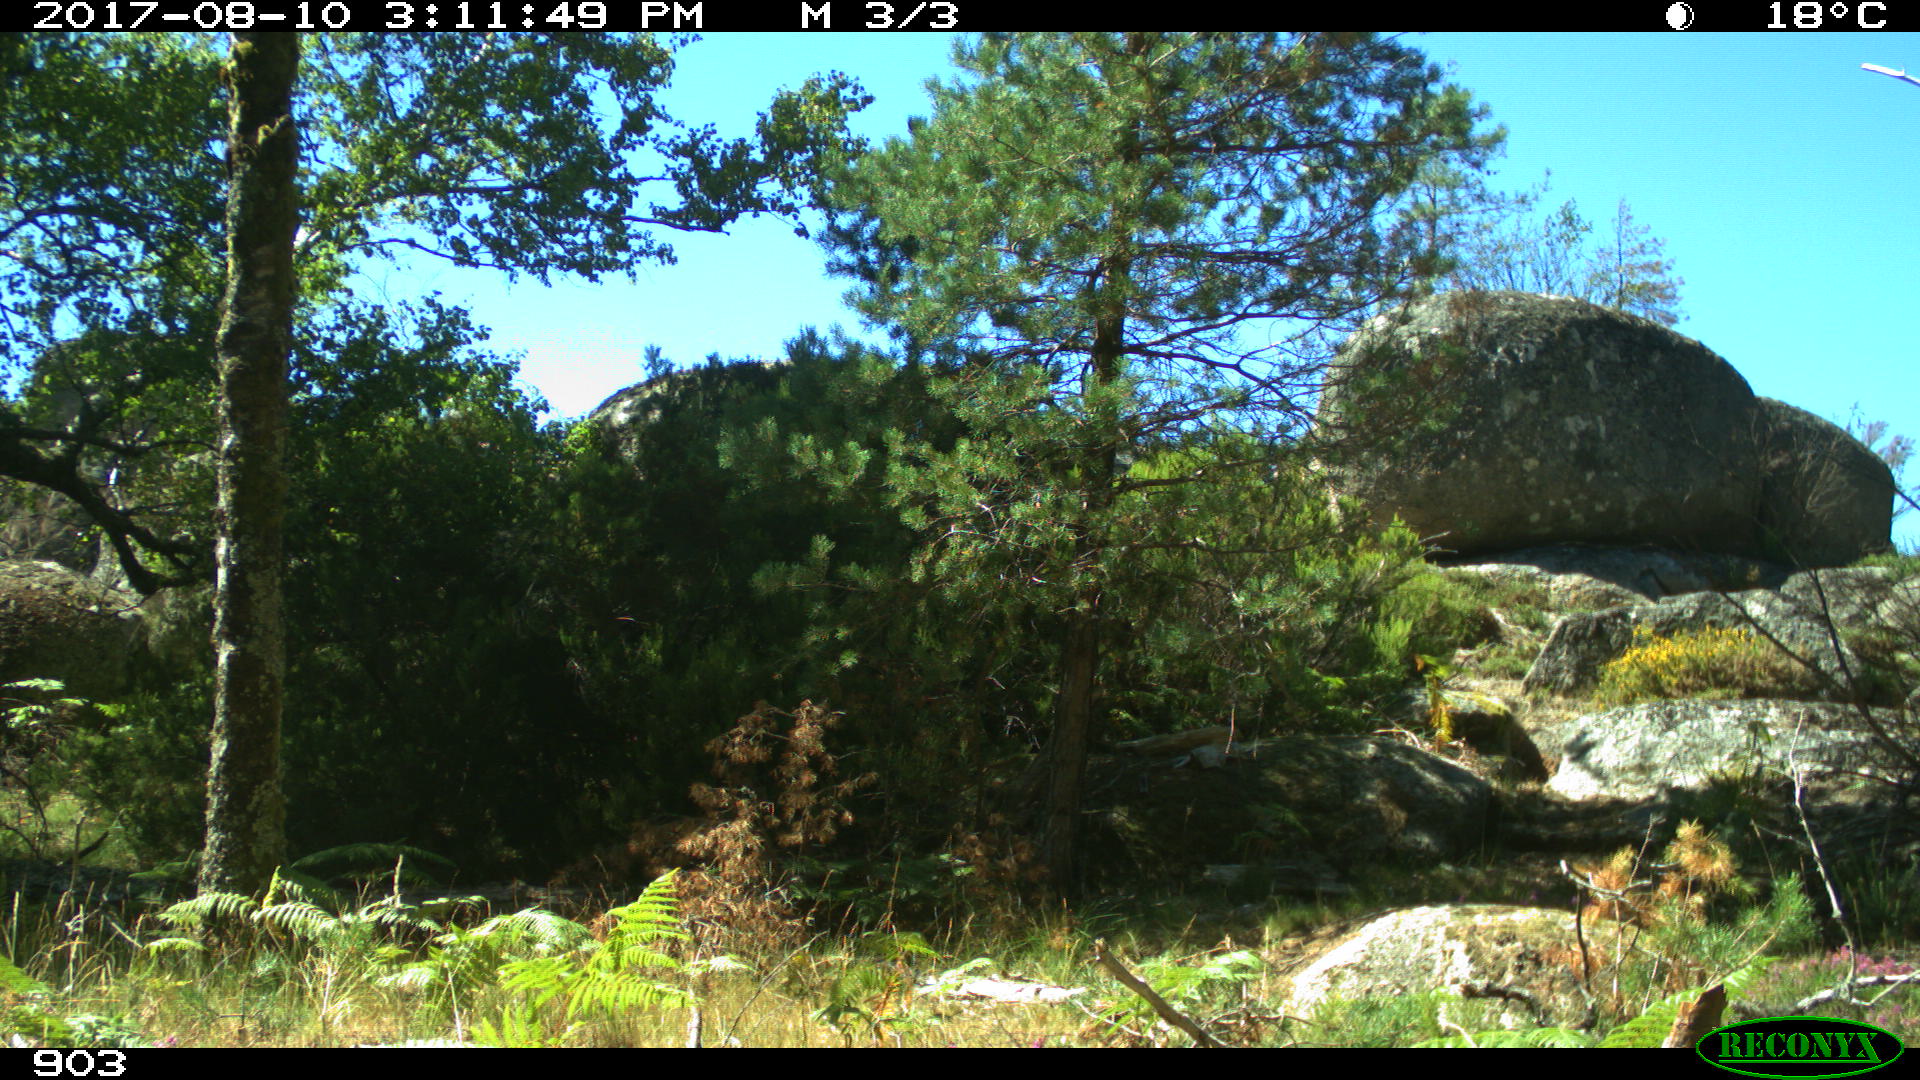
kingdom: Animalia
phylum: Chordata
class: Mammalia
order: Perissodactyla
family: Equidae
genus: Equus
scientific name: Equus caballus
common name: Horse
